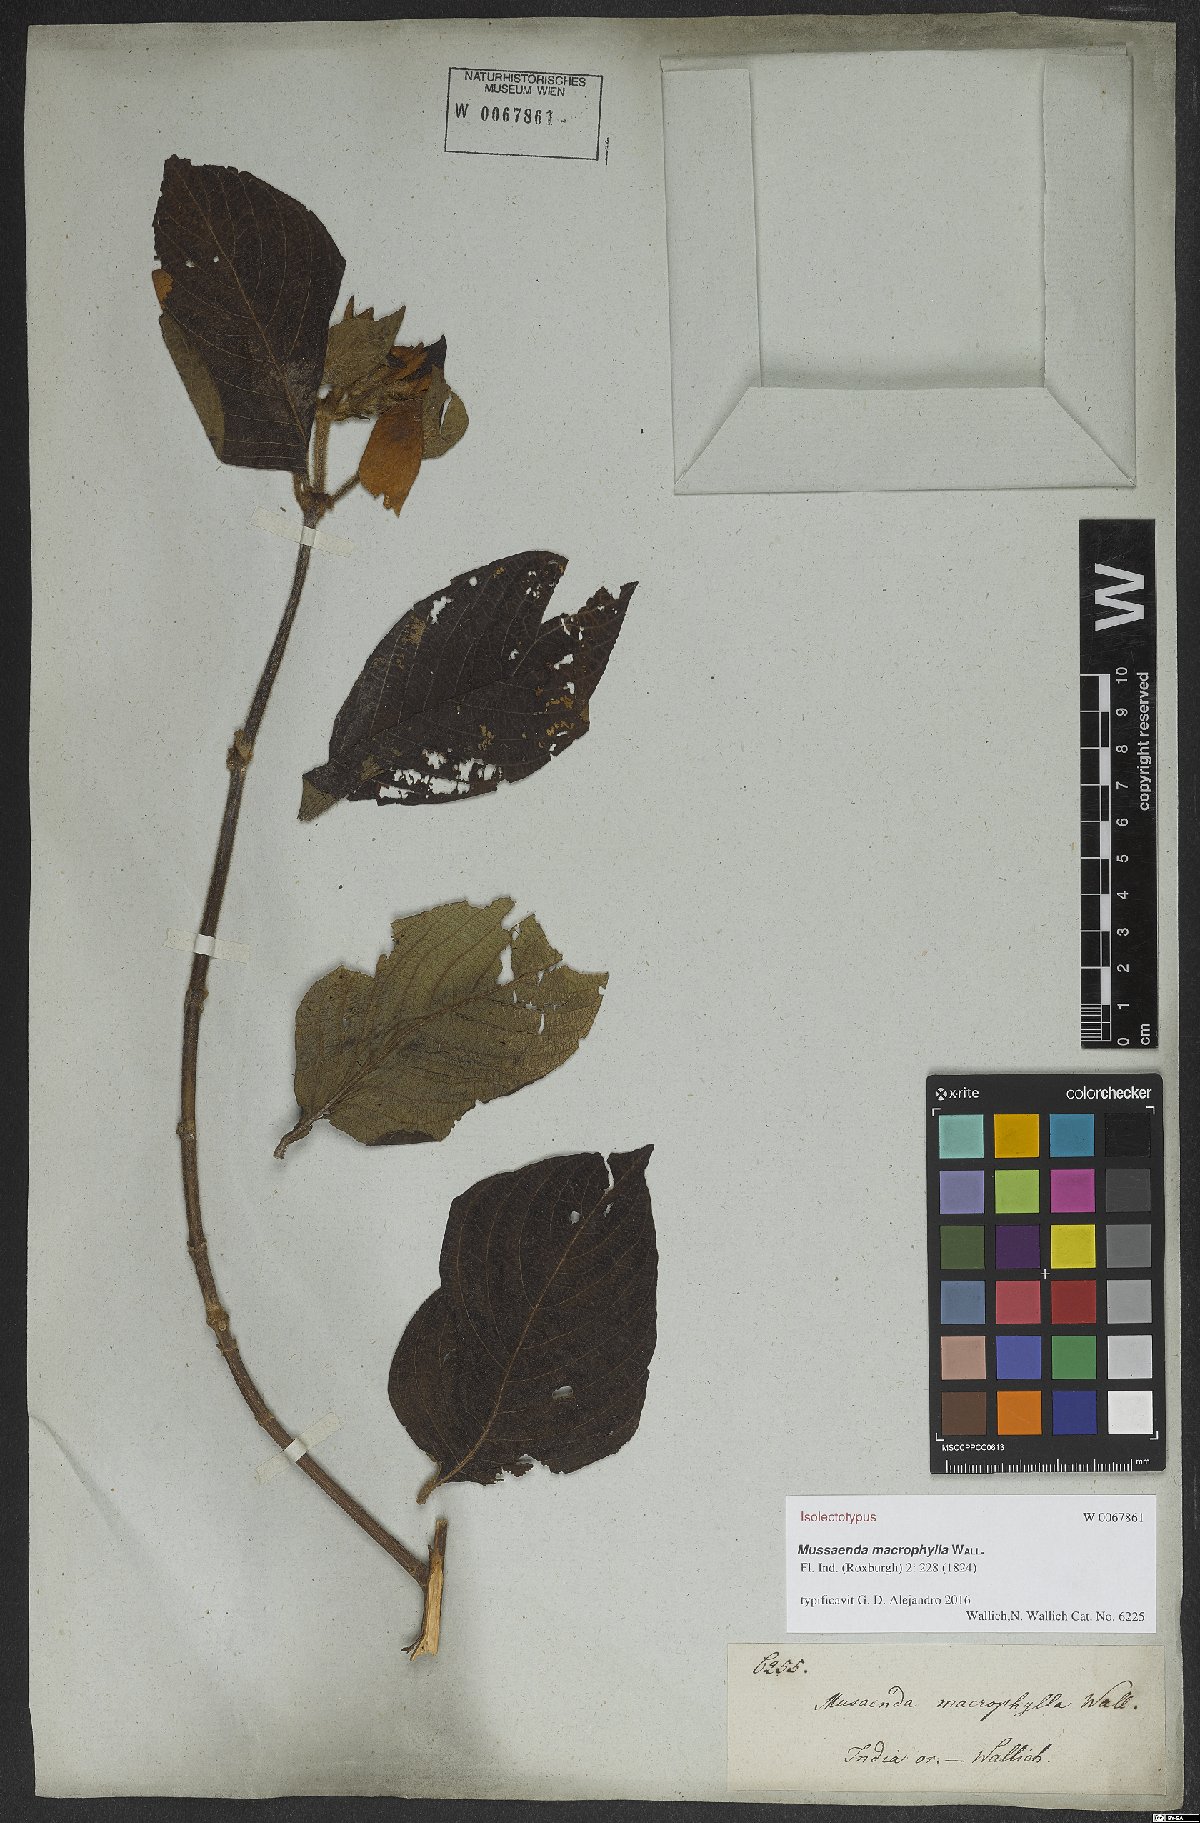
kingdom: Plantae
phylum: Tracheophyta
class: Magnoliopsida
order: Gentianales
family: Rubiaceae
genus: Mussaenda
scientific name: Mussaenda macrophylla
